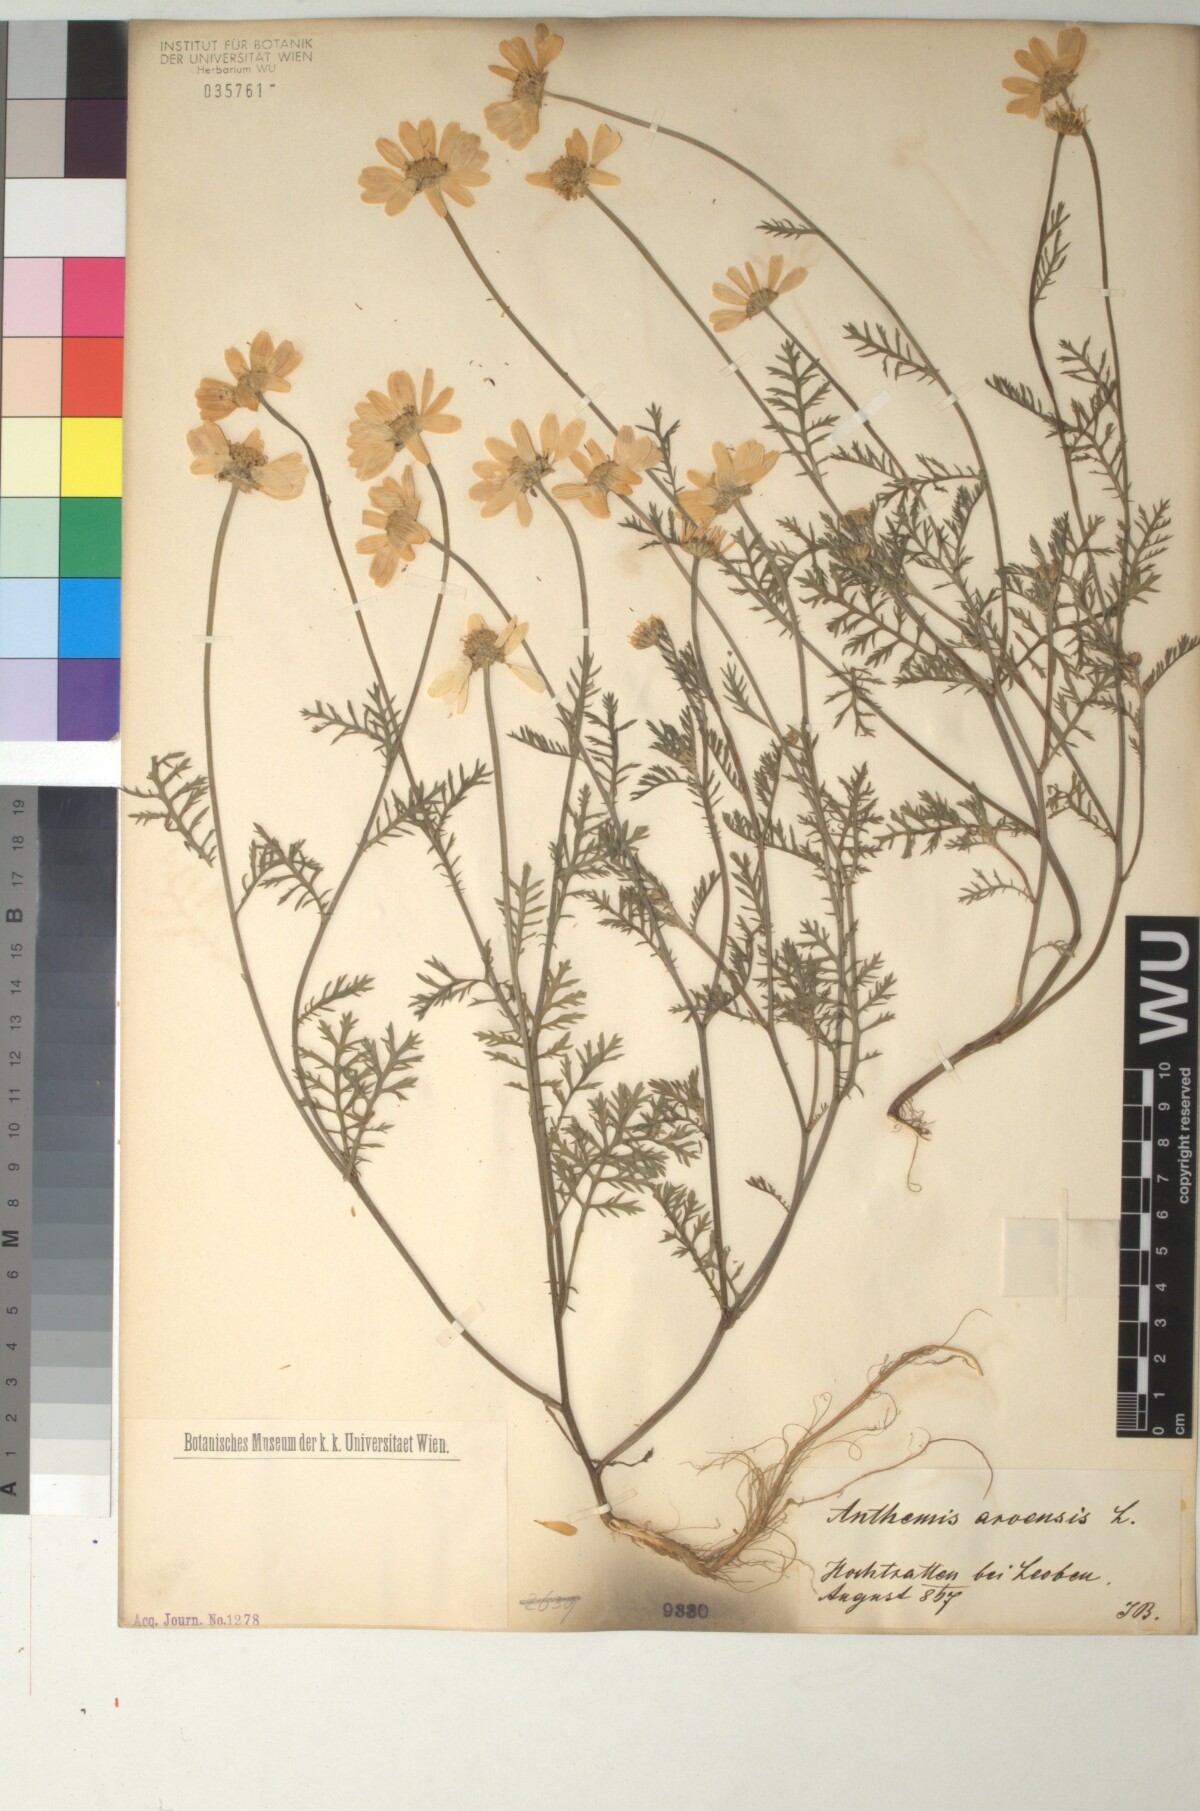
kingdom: Plantae
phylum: Tracheophyta
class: Magnoliopsida
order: Asterales
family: Asteraceae
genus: Anthemis
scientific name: Anthemis arvensis
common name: Corn chamomile
